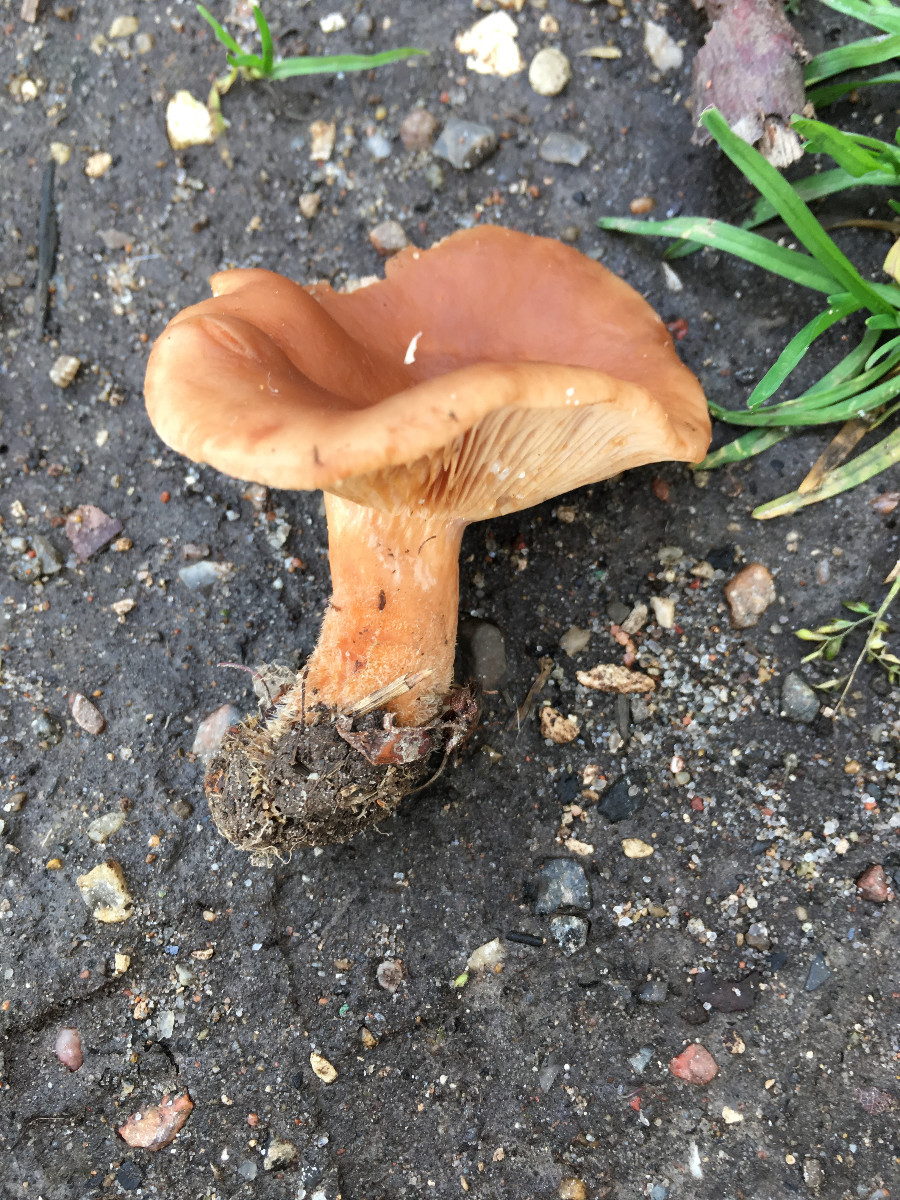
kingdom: Fungi
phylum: Basidiomycota
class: Agaricomycetes
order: Russulales
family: Russulaceae
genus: Lactarius
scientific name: Lactarius subdulcis
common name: sødlig mælkehat
